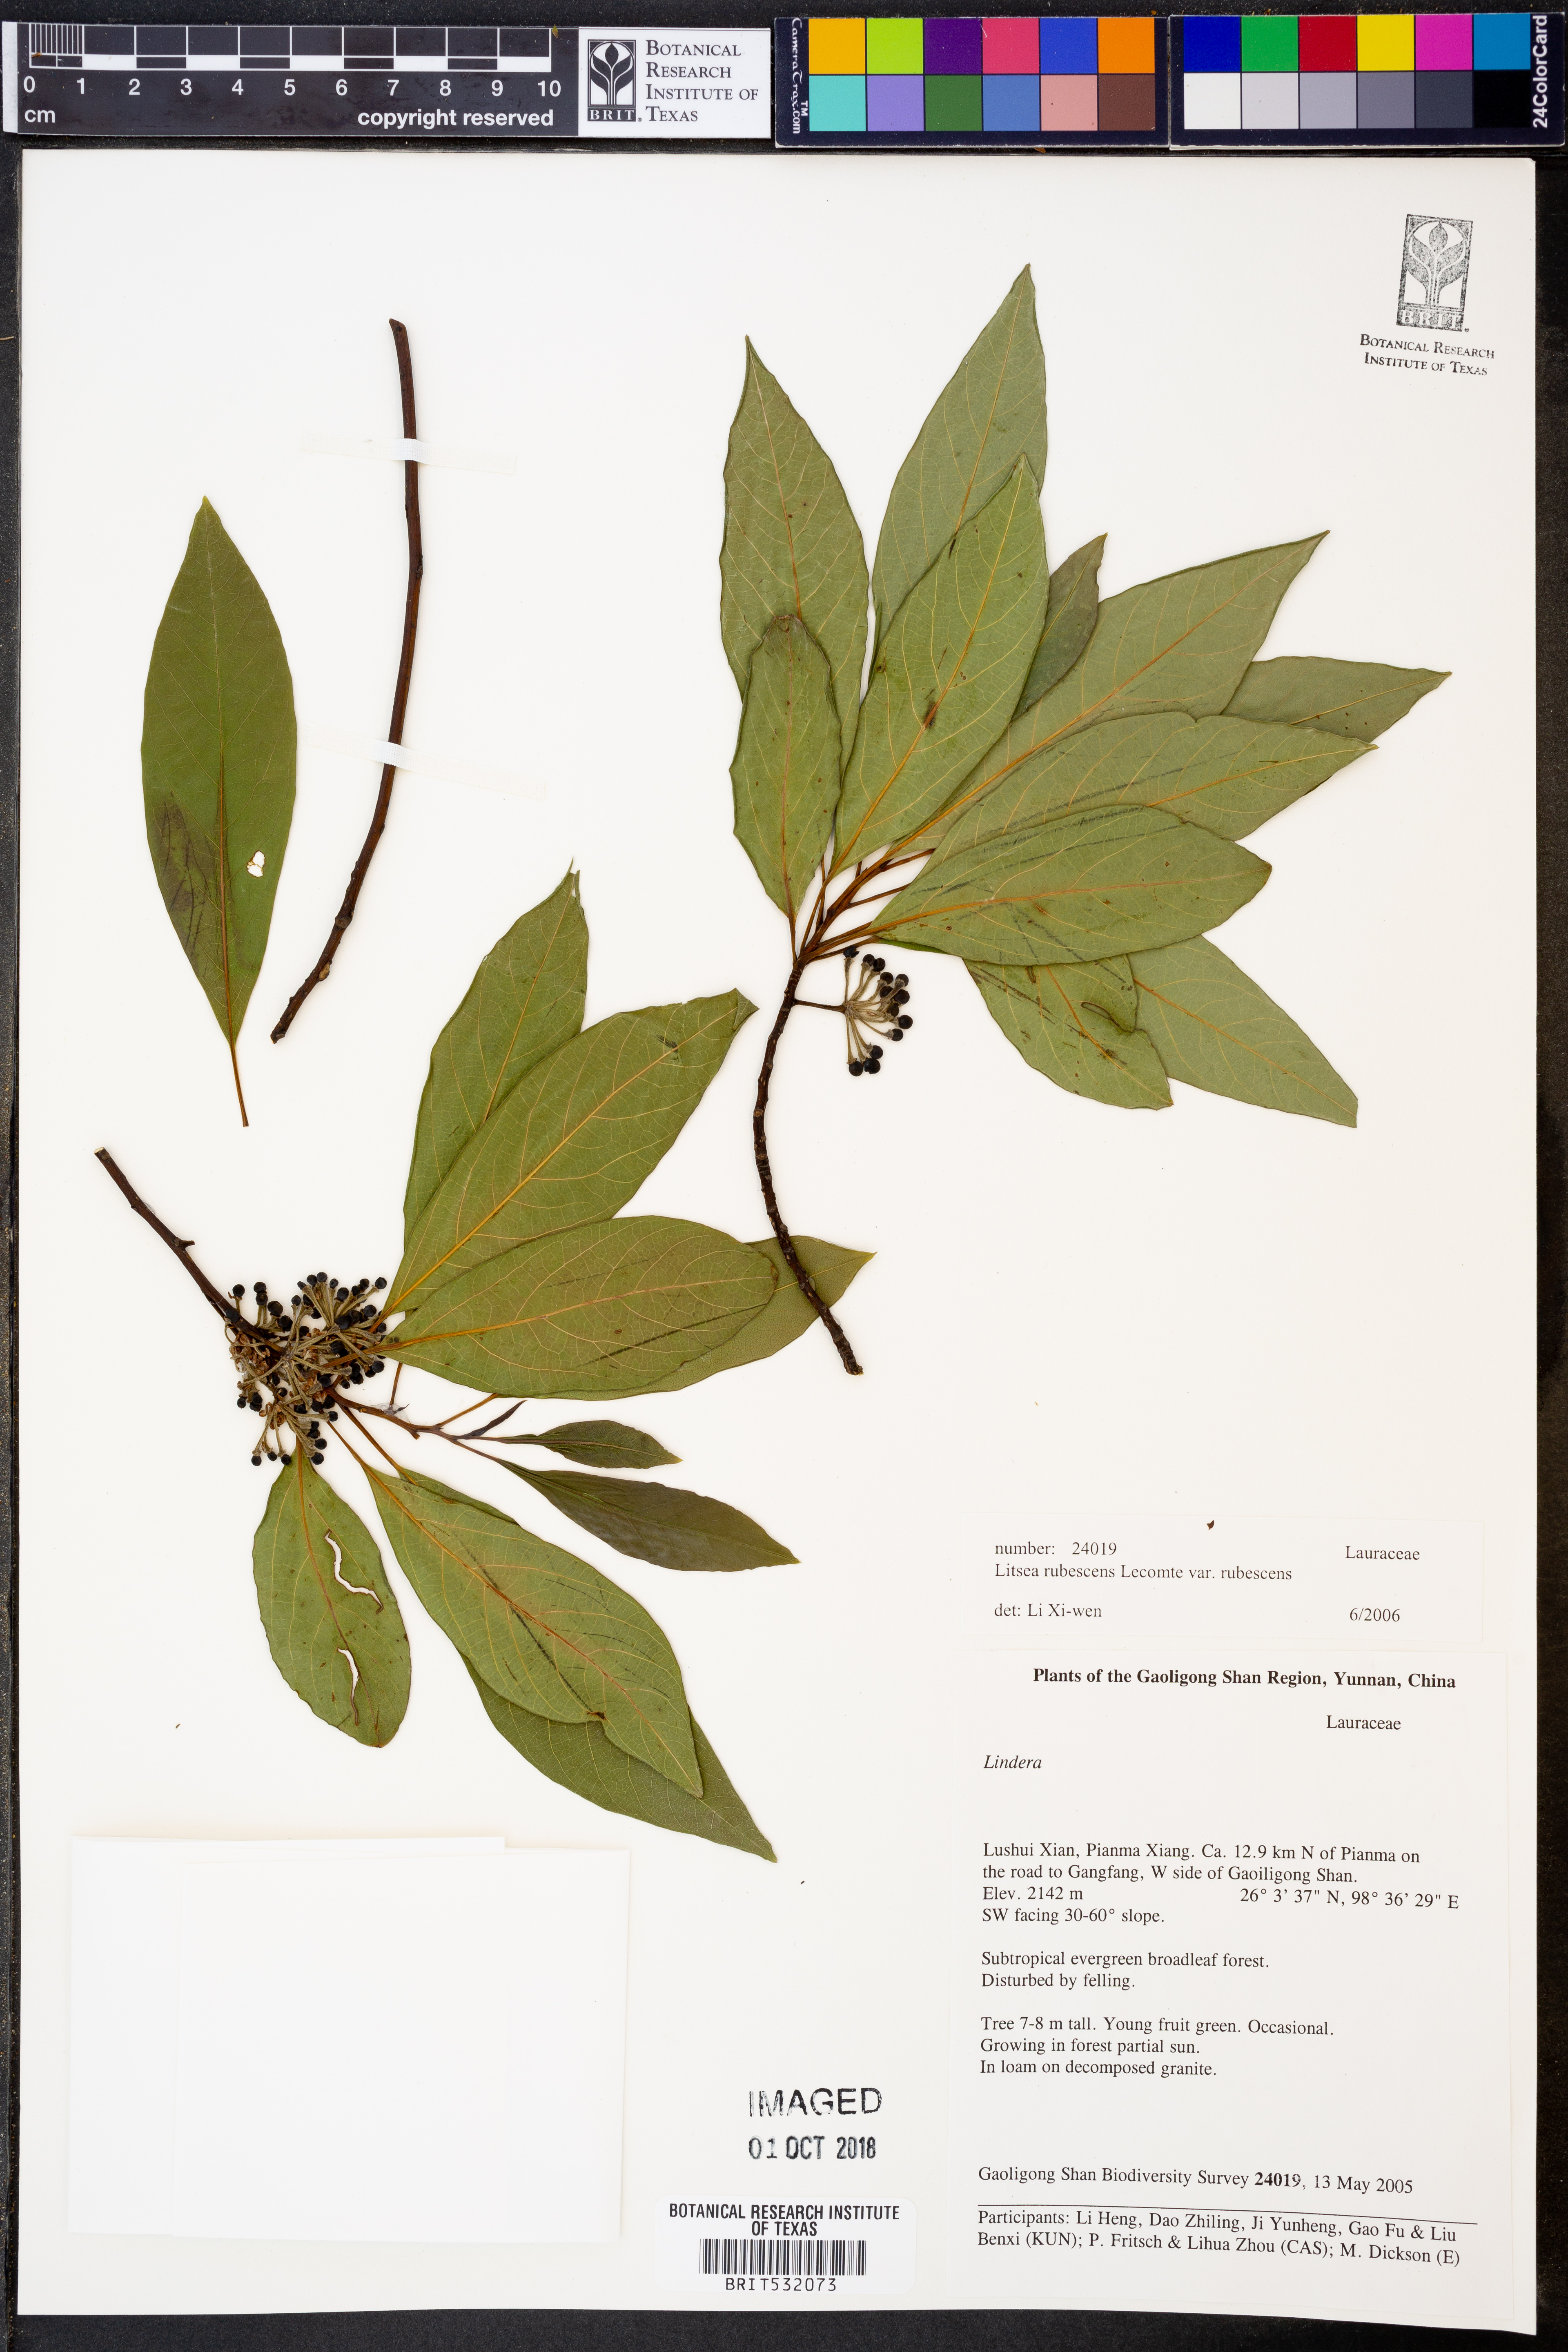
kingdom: Plantae
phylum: Tracheophyta
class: Magnoliopsida
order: Laurales
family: Lauraceae
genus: Litsea
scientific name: Litsea rubescens
